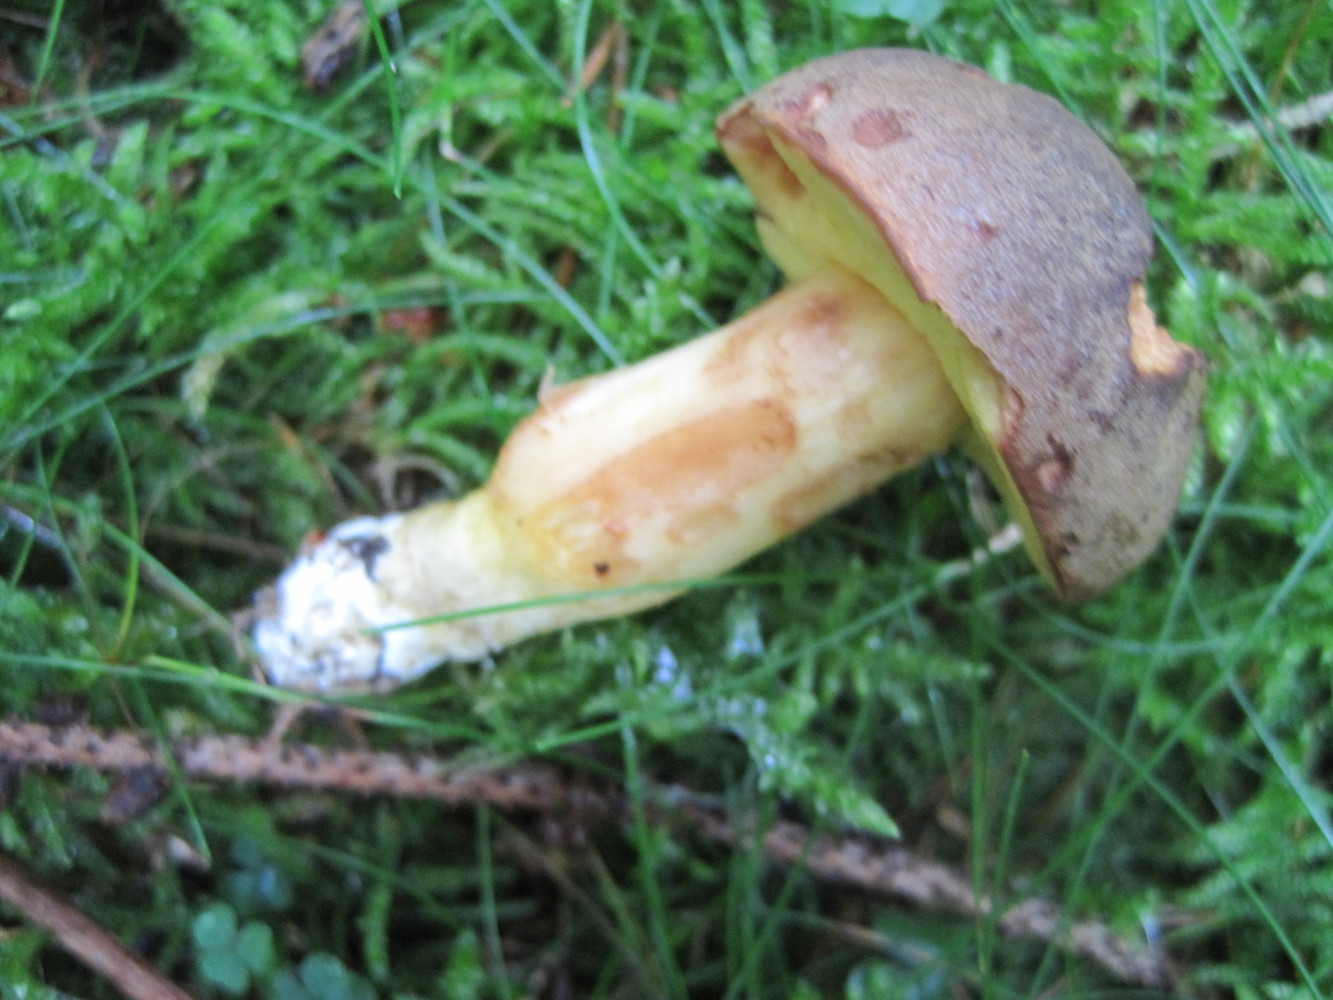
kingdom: Fungi
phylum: Basidiomycota
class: Agaricomycetes
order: Boletales
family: Boletaceae
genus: Xerocomellus
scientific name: Xerocomellus pruinatus
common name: dugget rørhat
